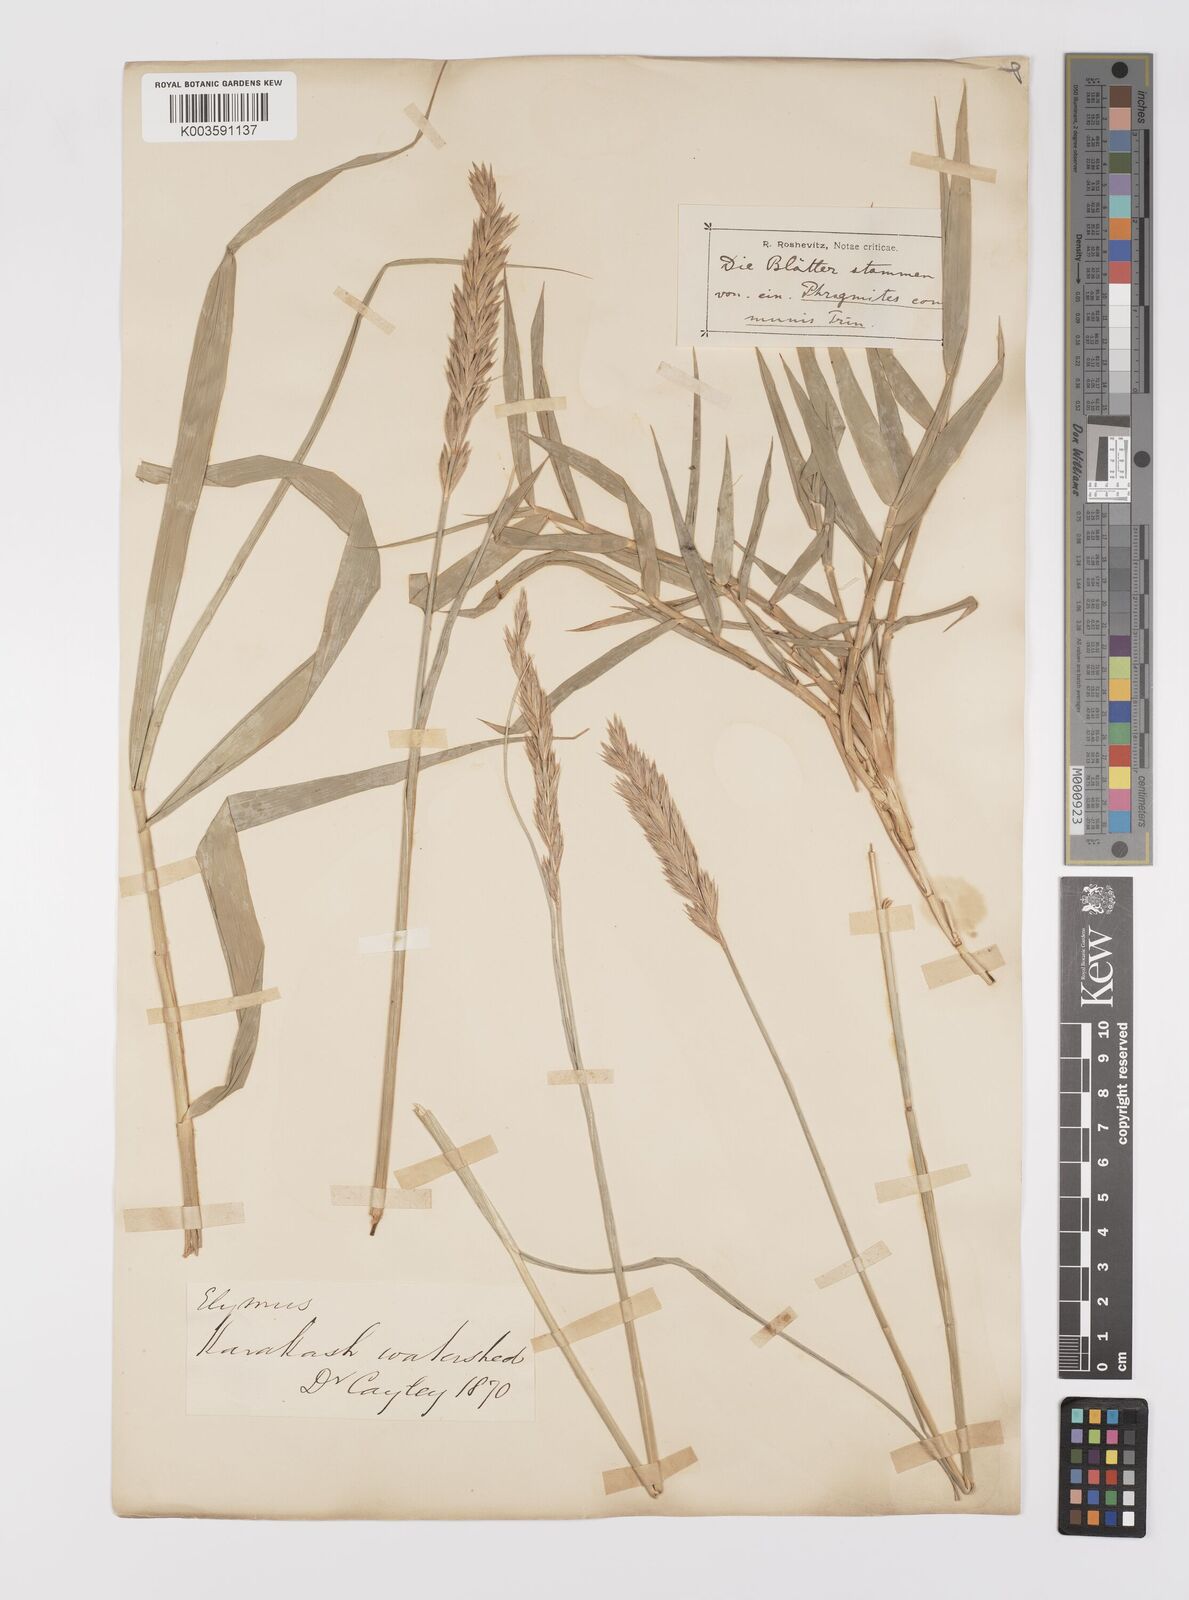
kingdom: Plantae
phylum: Tracheophyta
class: Liliopsida
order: Poales
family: Poaceae
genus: Leymus
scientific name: Leymus secalinus
